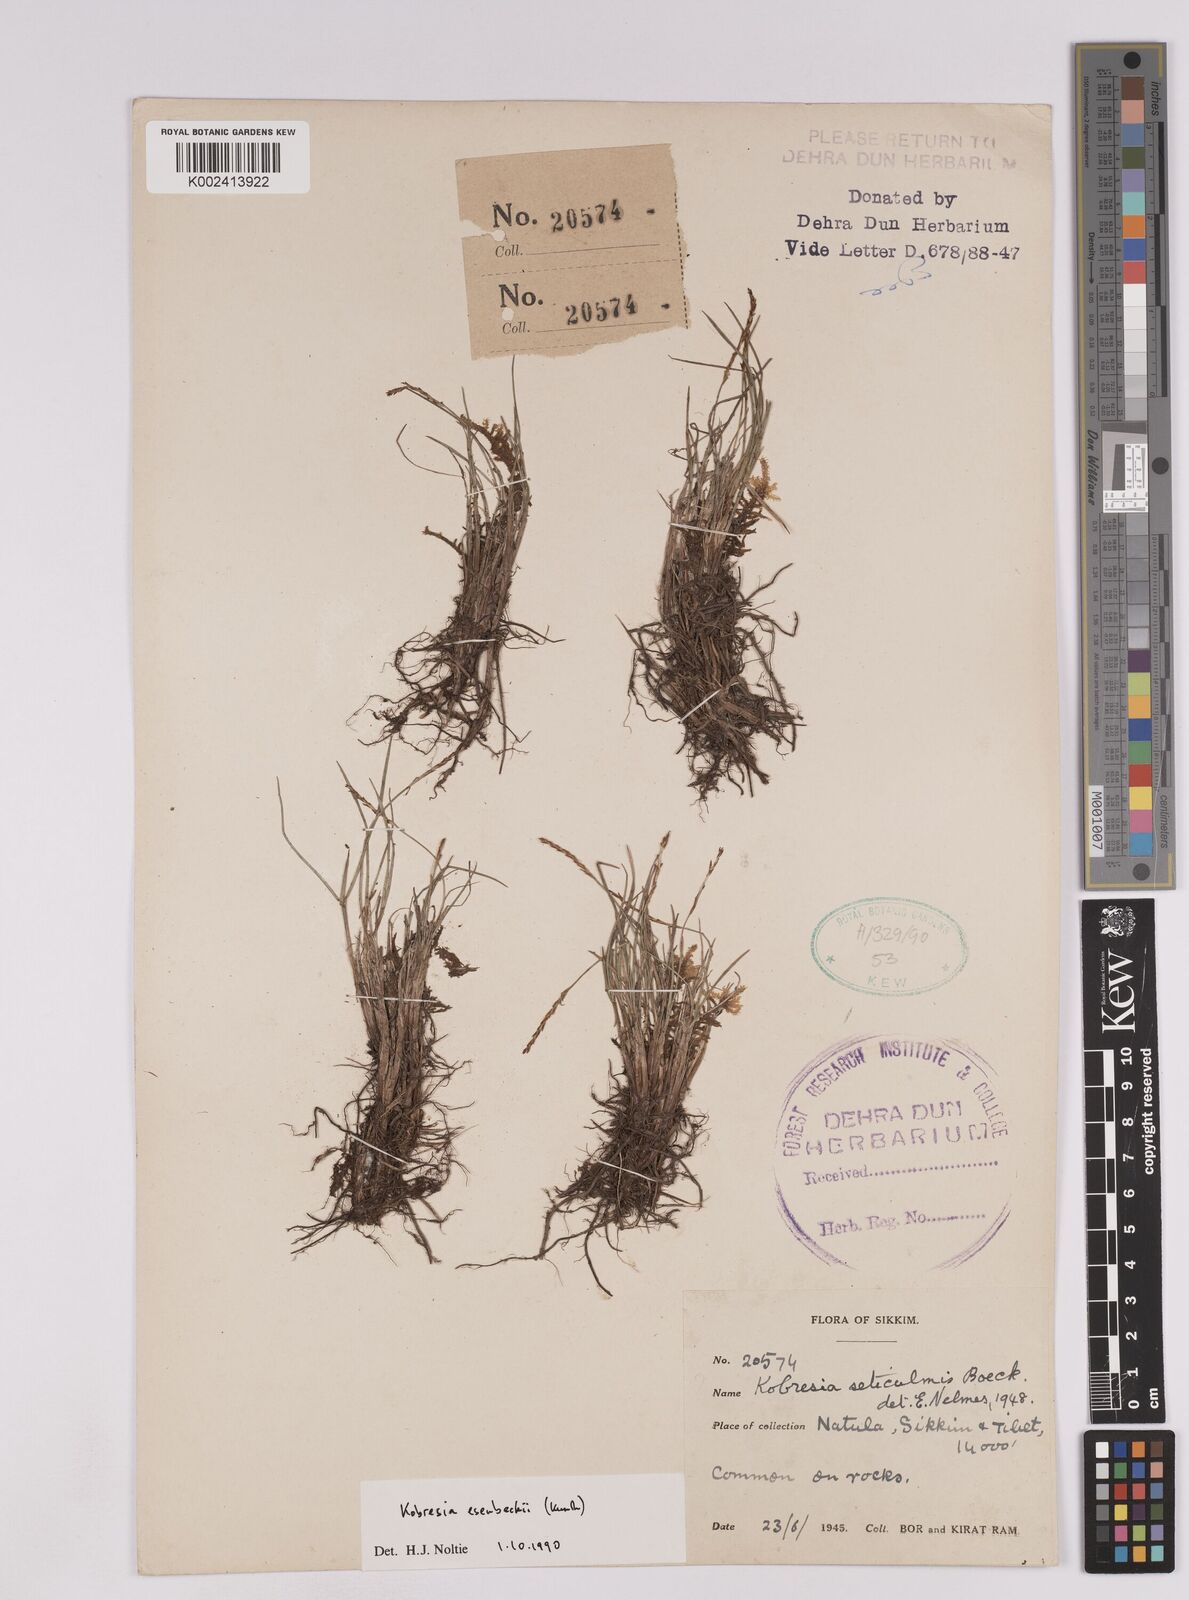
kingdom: Plantae
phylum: Tracheophyta
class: Liliopsida
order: Poales
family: Cyperaceae
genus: Carex
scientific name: Carex esenbeckii
